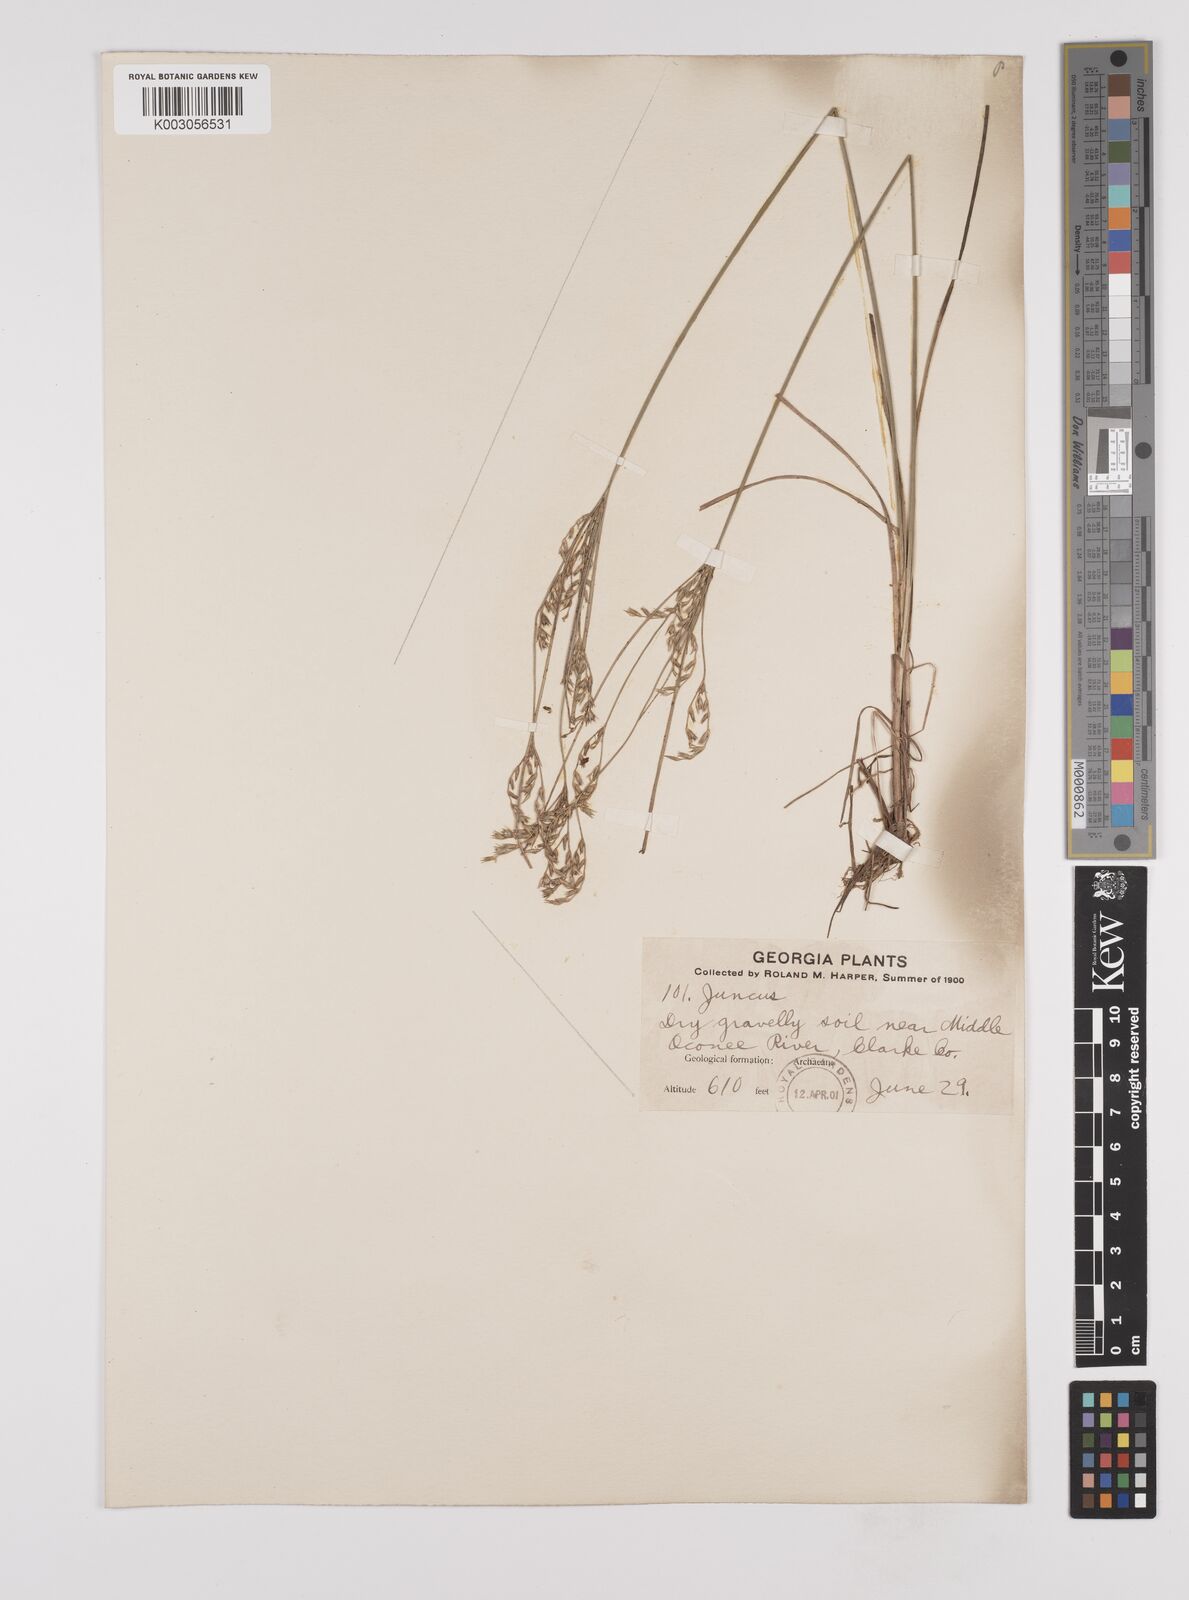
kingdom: Plantae
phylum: Tracheophyta
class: Liliopsida
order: Poales
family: Juncaceae
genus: Juncus
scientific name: Juncus secundus
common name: Lopsided rush
